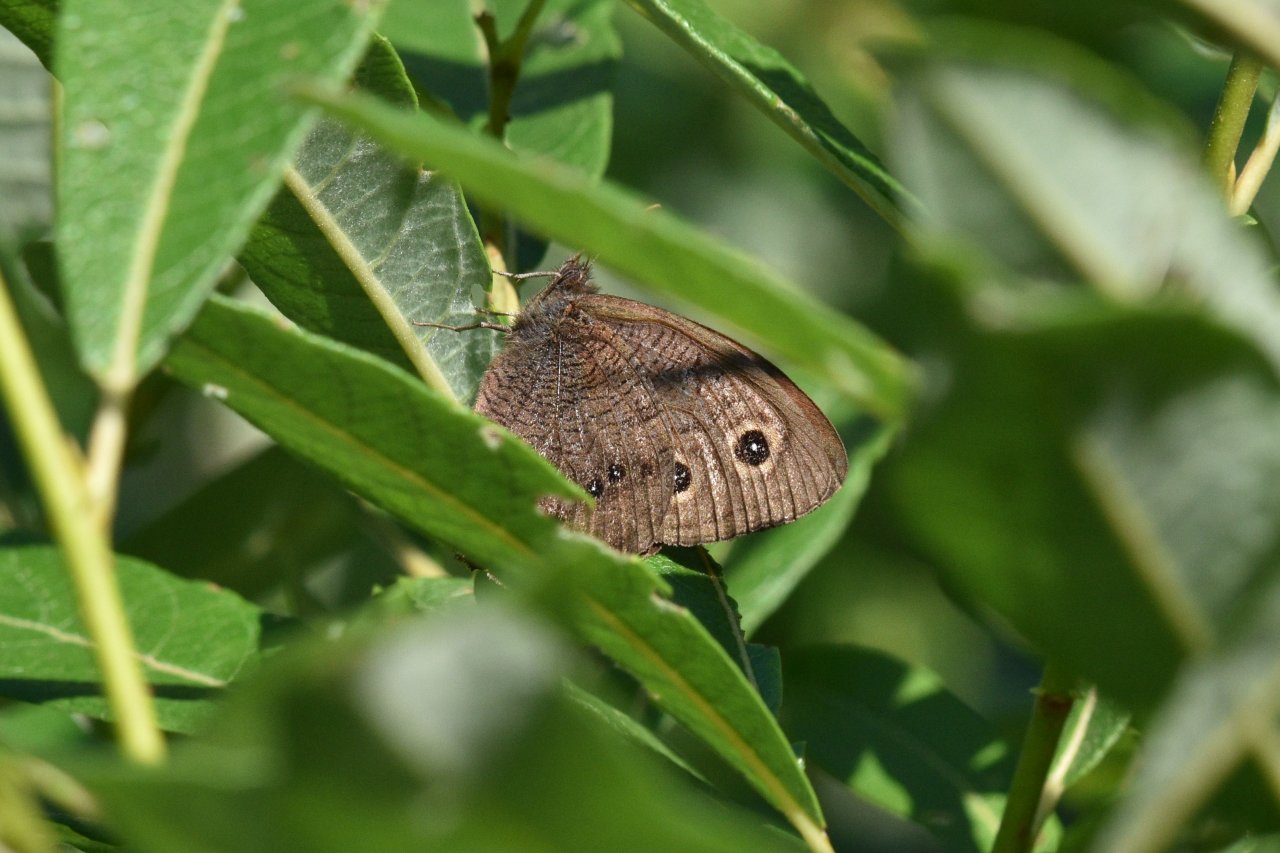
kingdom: Animalia
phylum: Arthropoda
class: Insecta
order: Lepidoptera
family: Nymphalidae
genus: Cercyonis
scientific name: Cercyonis pegala
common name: Common Wood-Nymph
